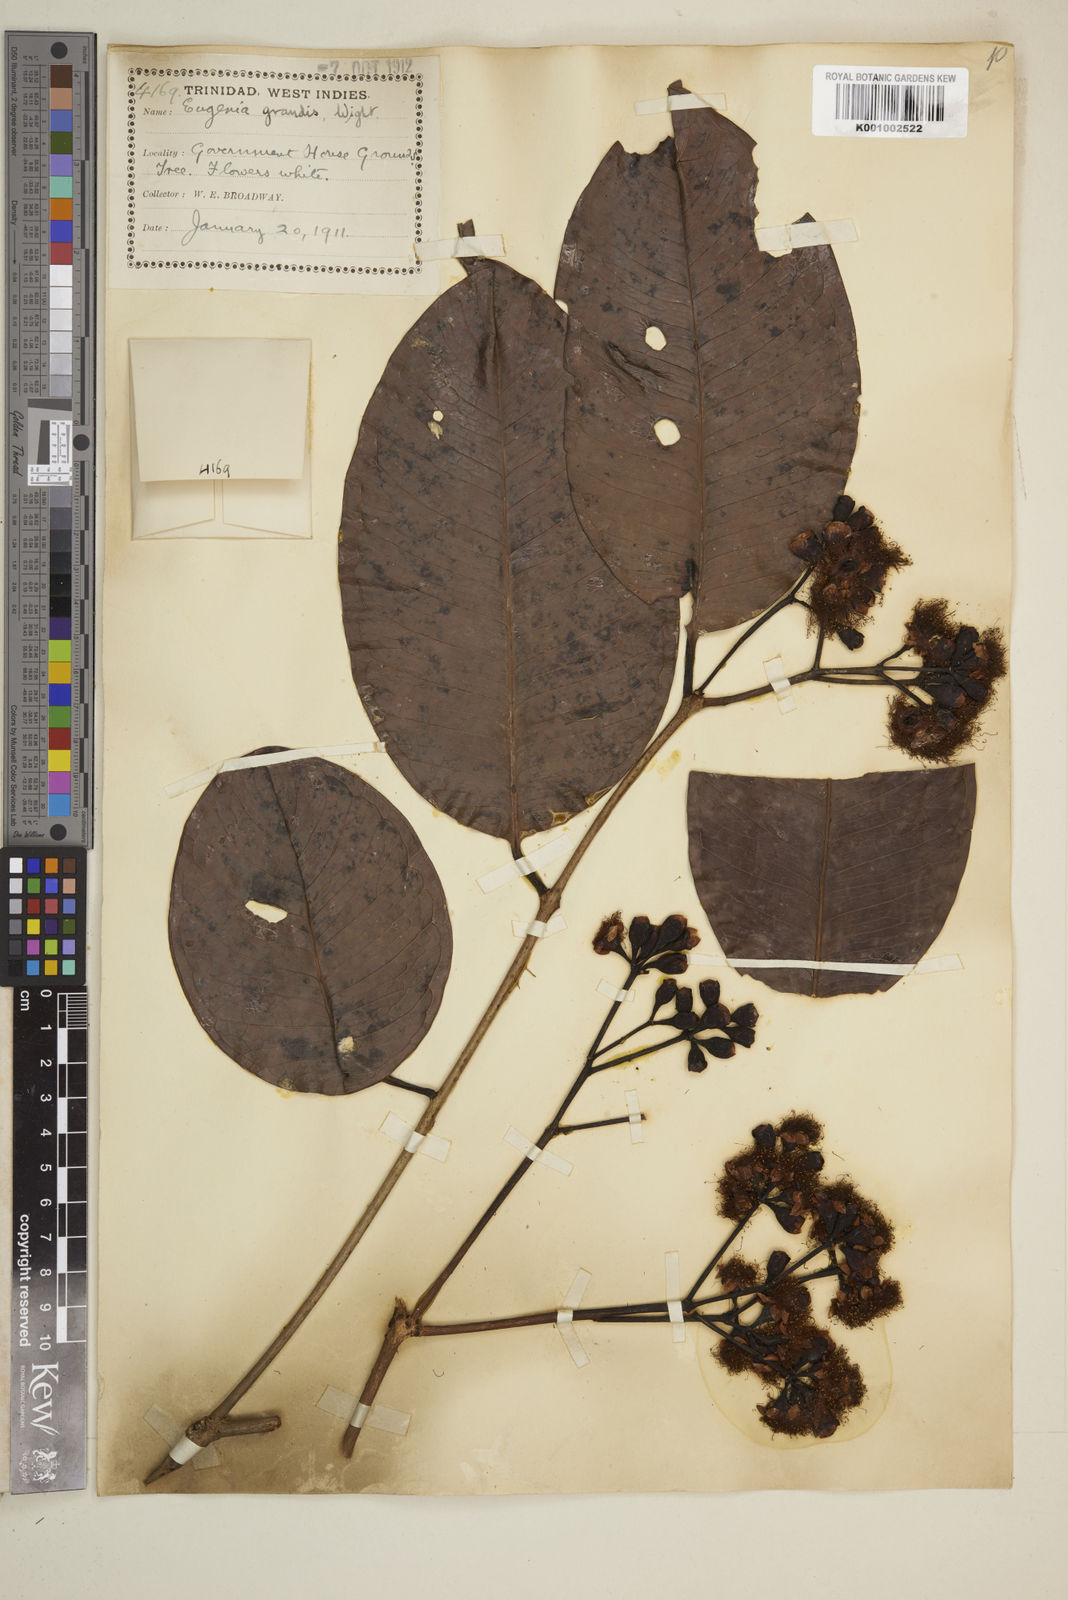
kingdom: Plantae
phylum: Tracheophyta
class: Magnoliopsida
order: Myrtales
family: Myrtaceae
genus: Syzygium
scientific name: Syzygium grande
